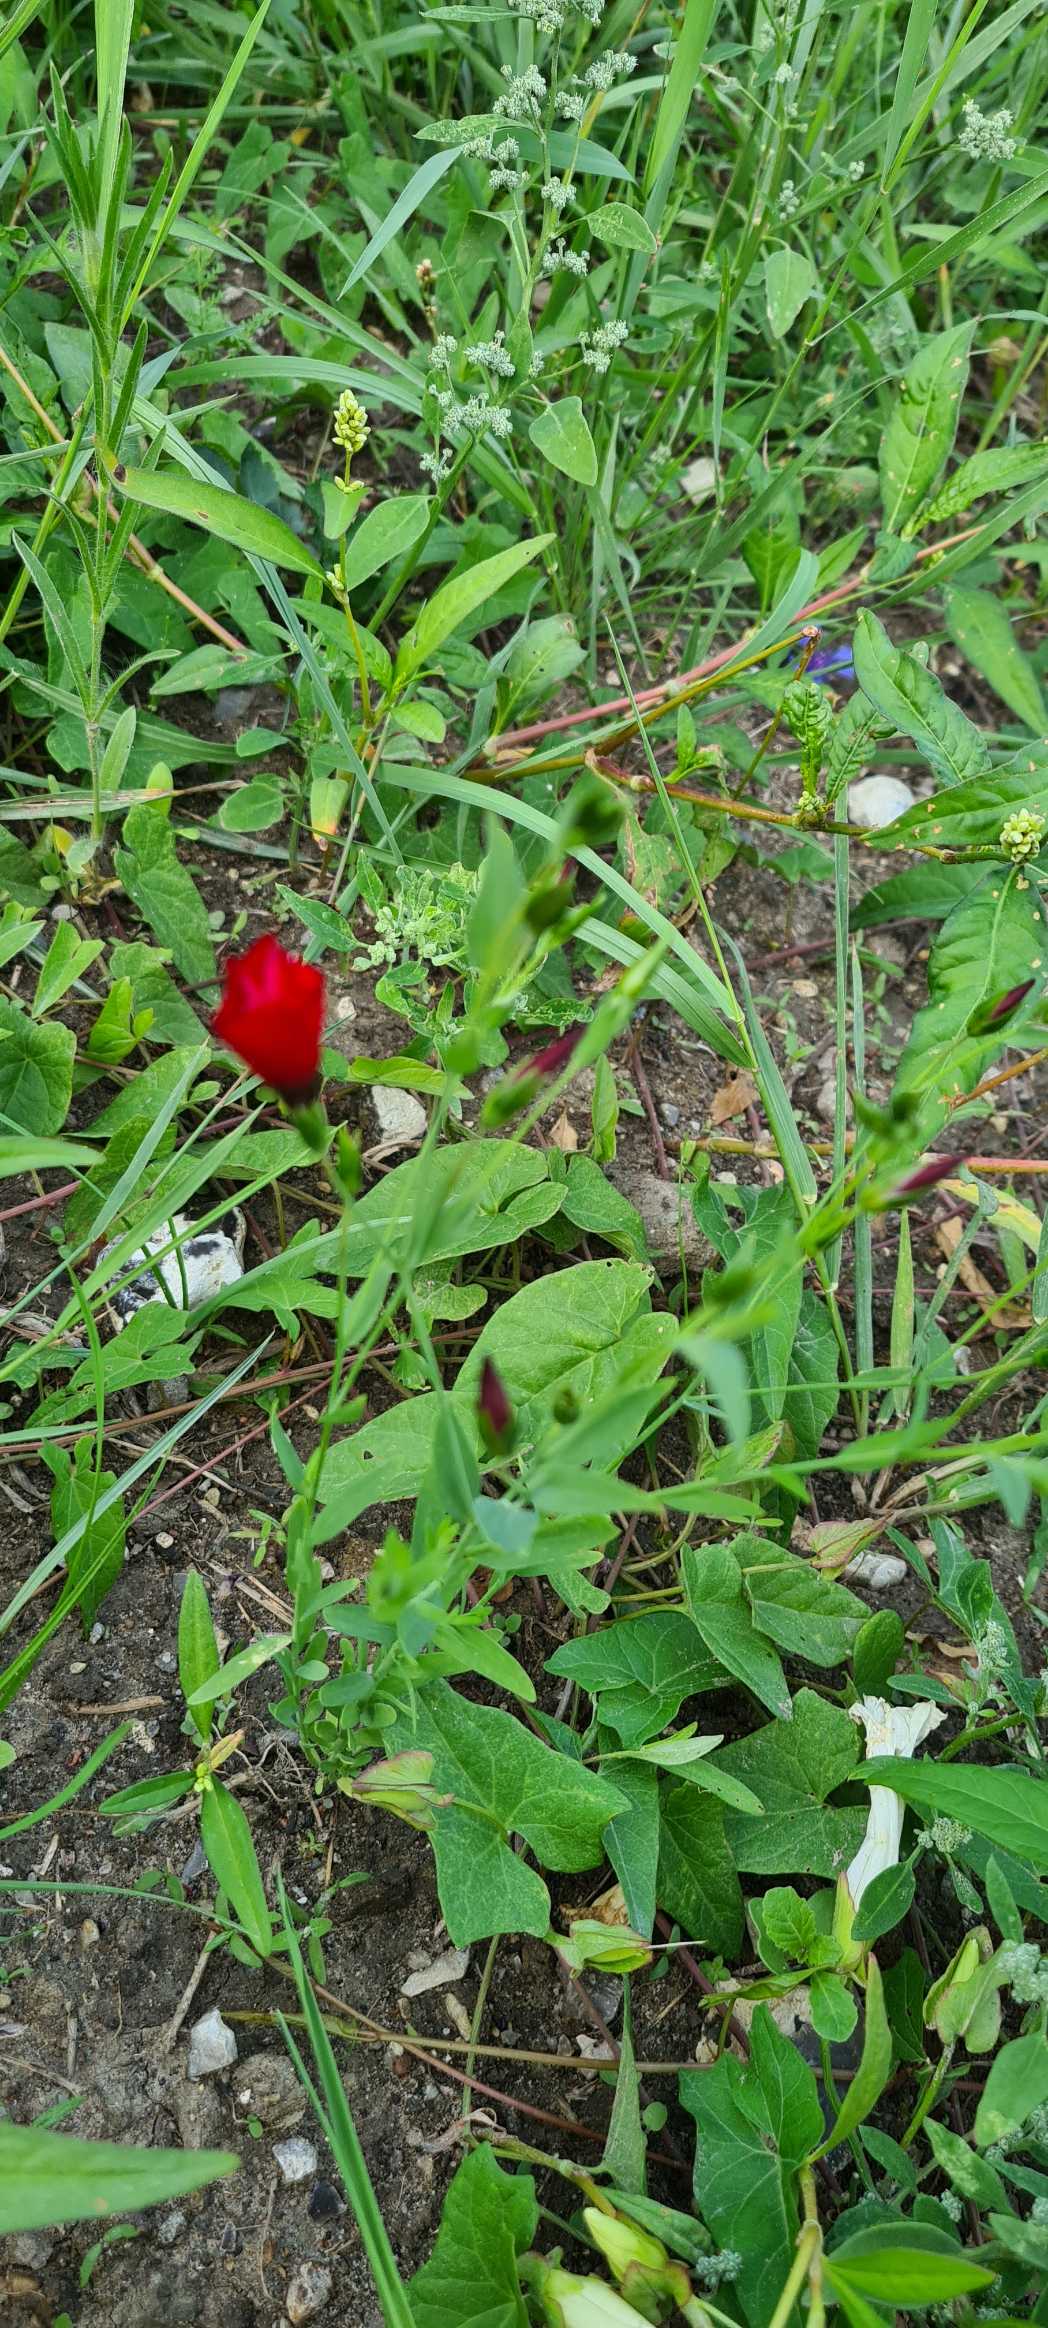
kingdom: Plantae
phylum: Tracheophyta
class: Magnoliopsida
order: Malpighiales
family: Linaceae
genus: Linum
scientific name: Linum grandiflorum
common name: Rød hør
